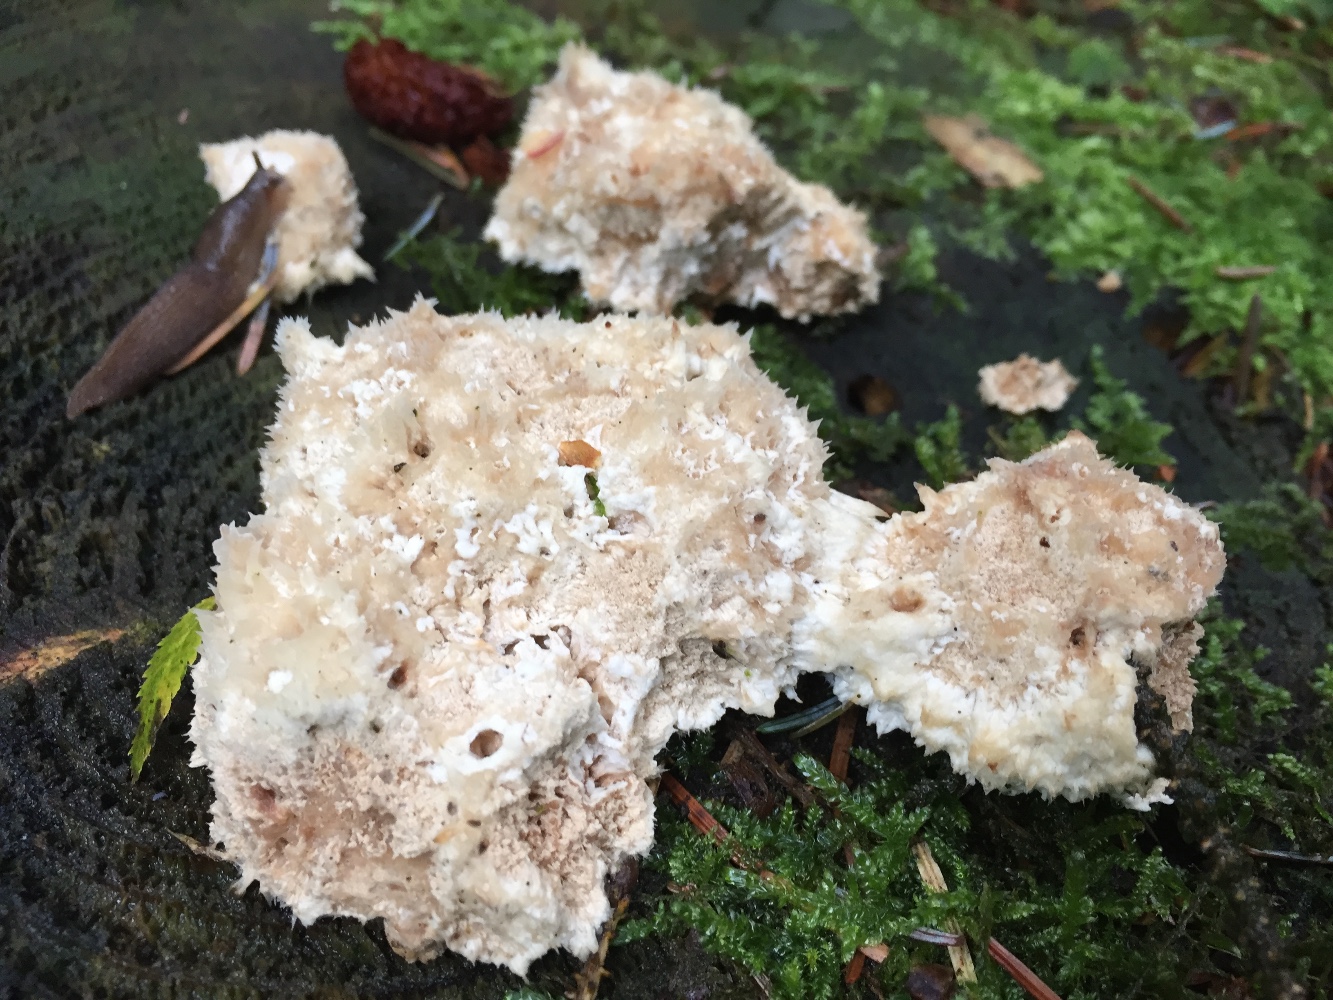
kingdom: Fungi
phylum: Basidiomycota
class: Agaricomycetes
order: Polyporales
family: Dacryobolaceae
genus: Postia
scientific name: Postia ptychogaster
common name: støvende kødporesvamp
